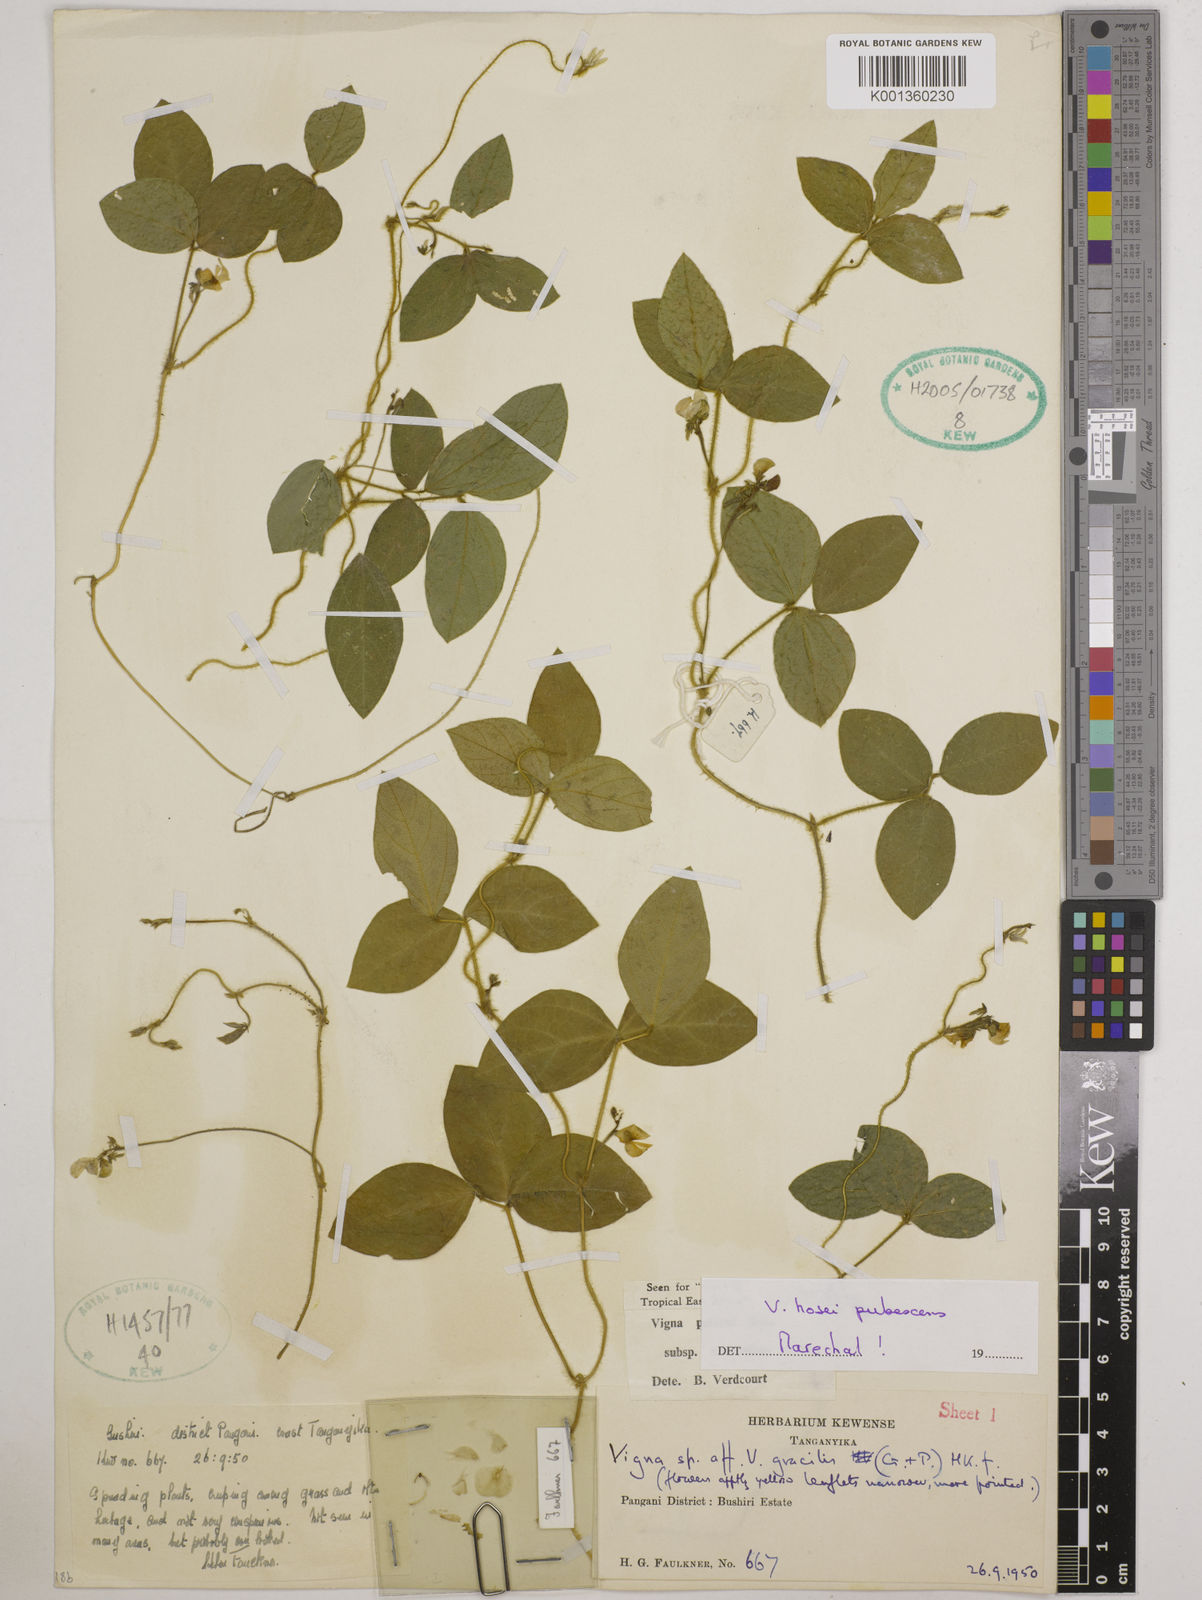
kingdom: Plantae
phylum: Tracheophyta
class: Magnoliopsida
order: Fabales
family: Fabaceae
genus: Vigna
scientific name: Vigna hosei
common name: Sarawak-bean
